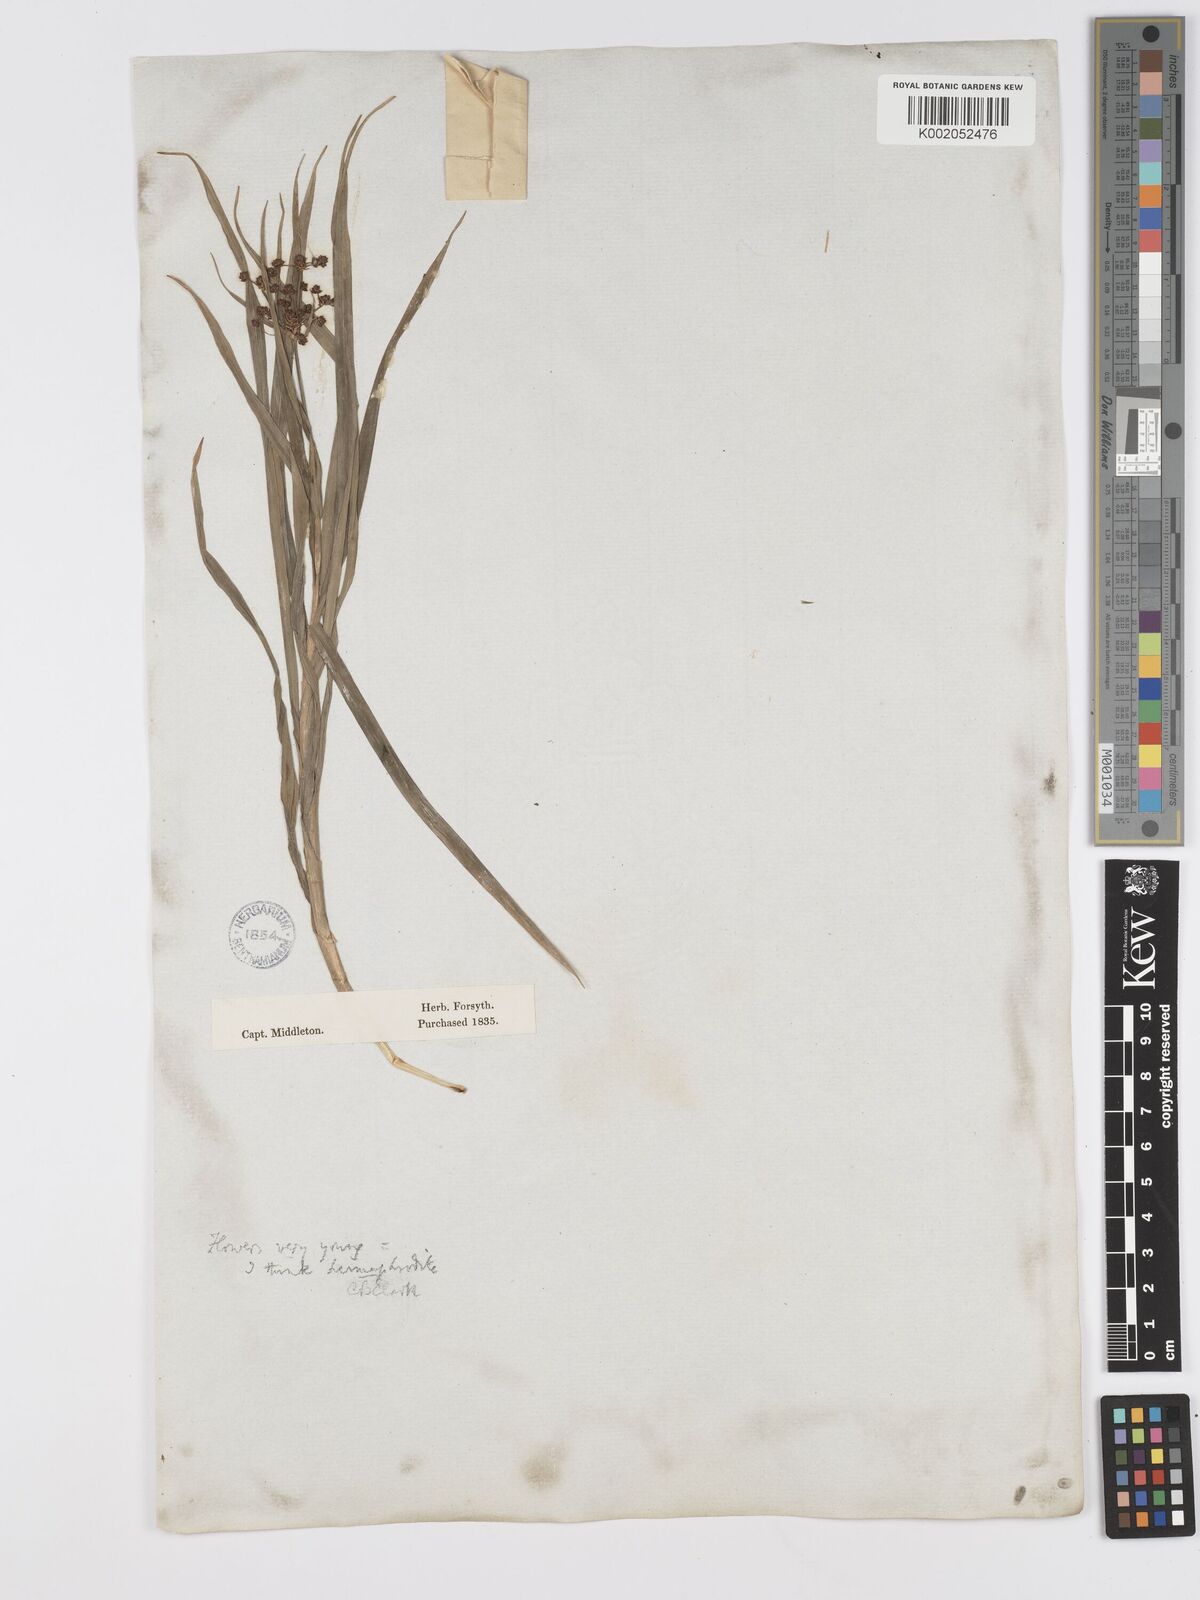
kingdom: Plantae
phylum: Tracheophyta
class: Liliopsida
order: Poales
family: Cyperaceae
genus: Scirpus
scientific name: Scirpus ternatanus
